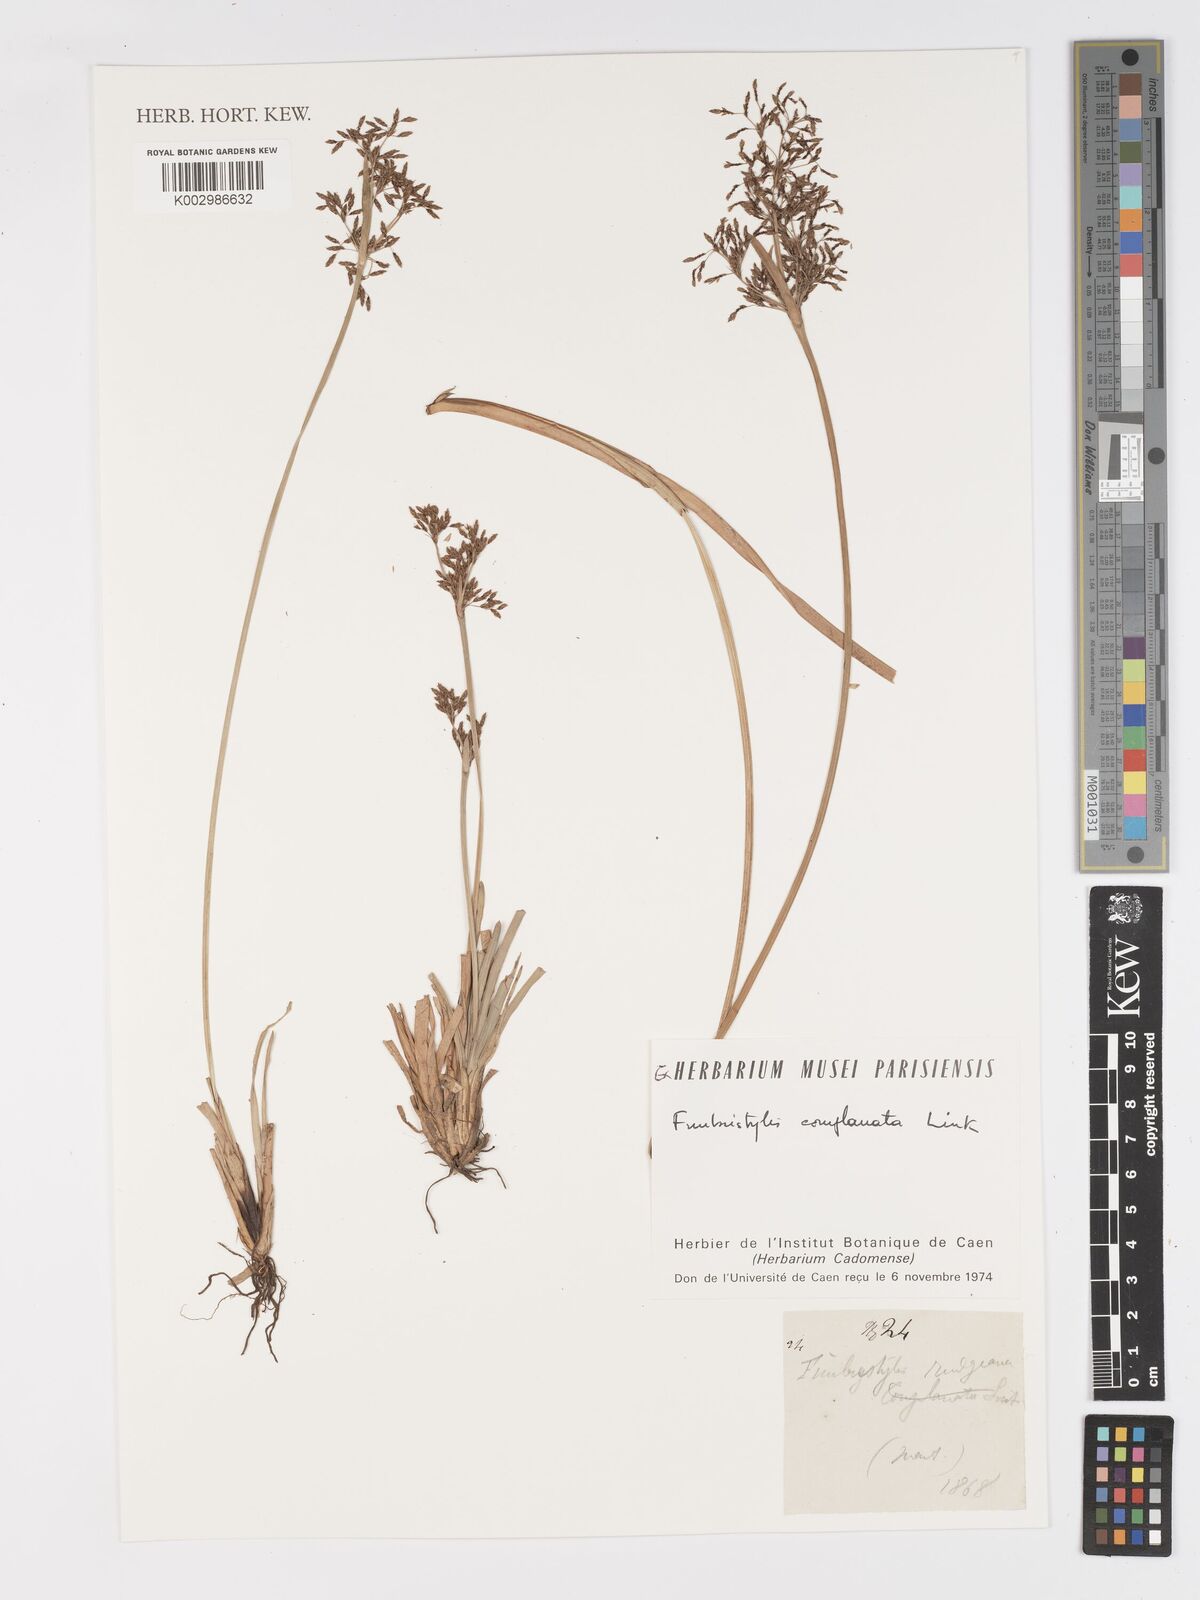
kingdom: Plantae
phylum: Tracheophyta
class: Liliopsida
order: Poales
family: Cyperaceae
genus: Fimbristylis
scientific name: Fimbristylis complanata
